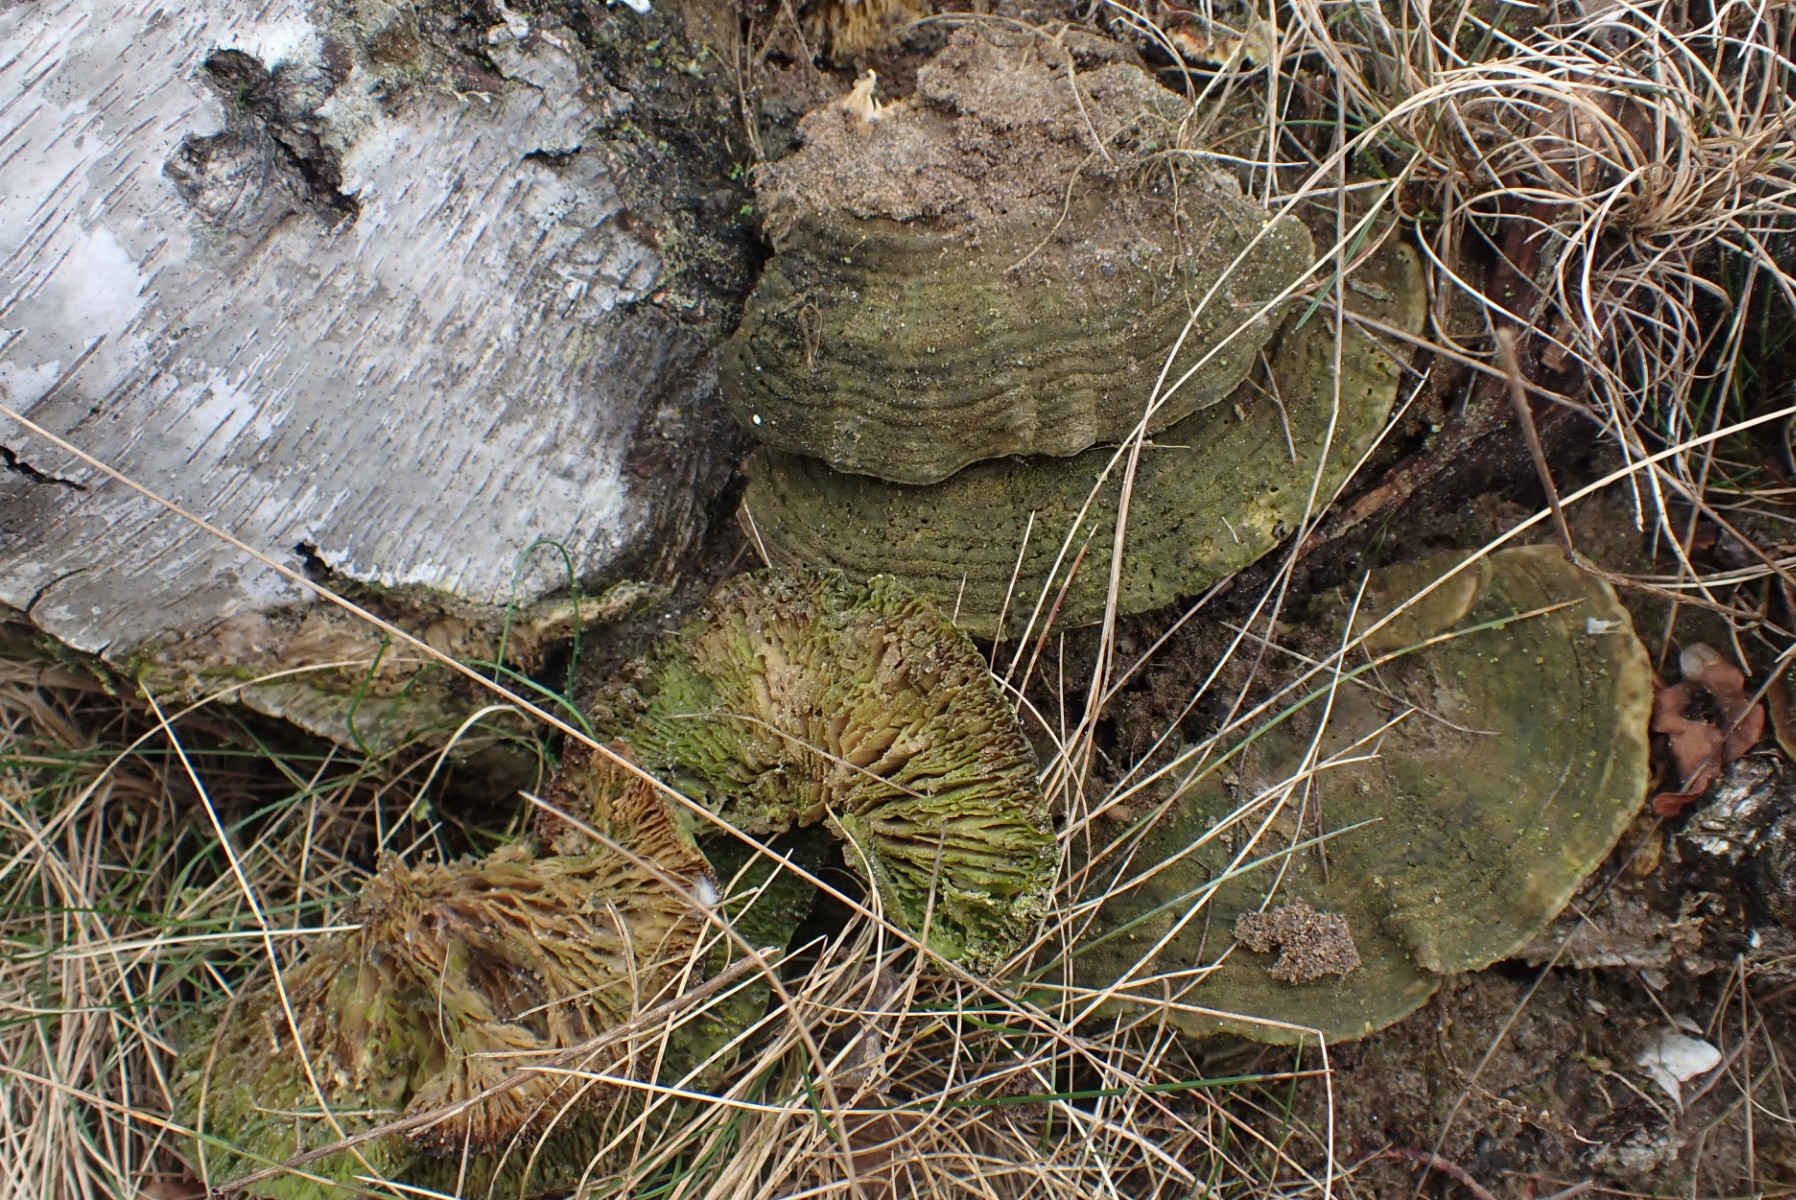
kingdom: Fungi
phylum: Basidiomycota
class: Agaricomycetes
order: Polyporales
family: Polyporaceae
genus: Lenzites
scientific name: Lenzites betulinus
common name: birke-læderporesvamp
